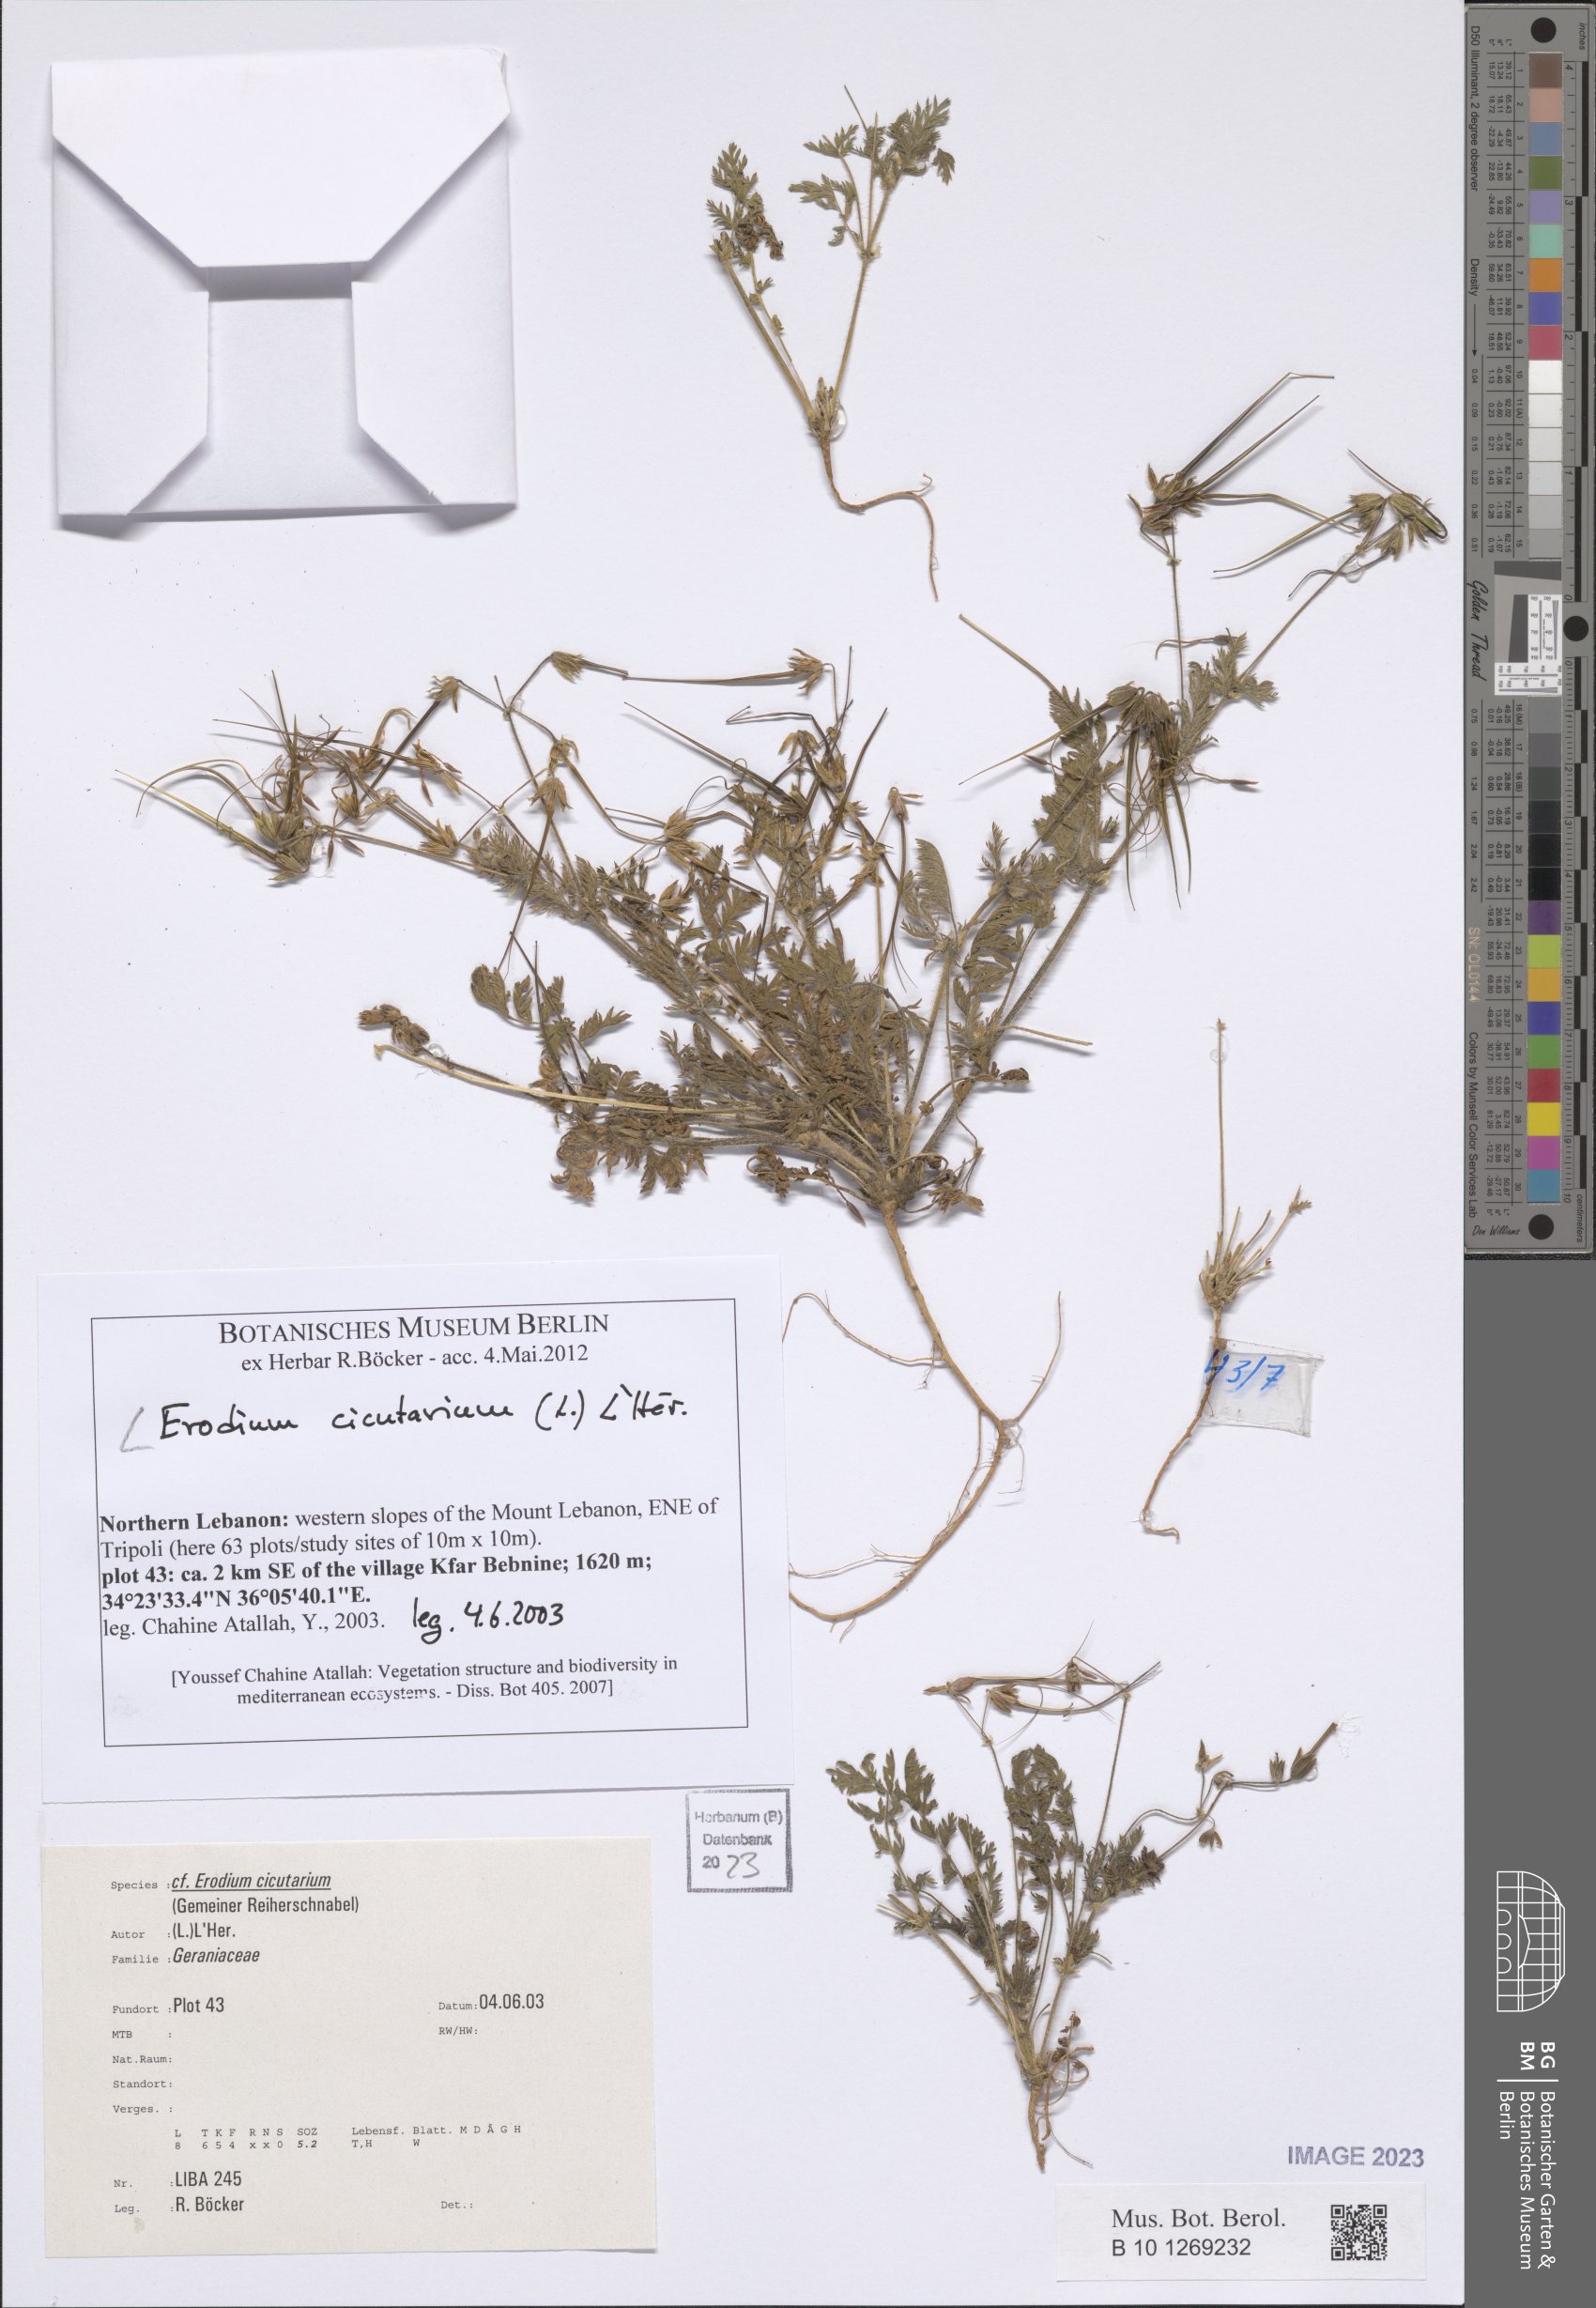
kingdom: Plantae
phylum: Tracheophyta
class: Magnoliopsida
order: Geraniales
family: Geraniaceae
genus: Erodium
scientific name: Erodium cicutarium
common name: Common stork's-bill
